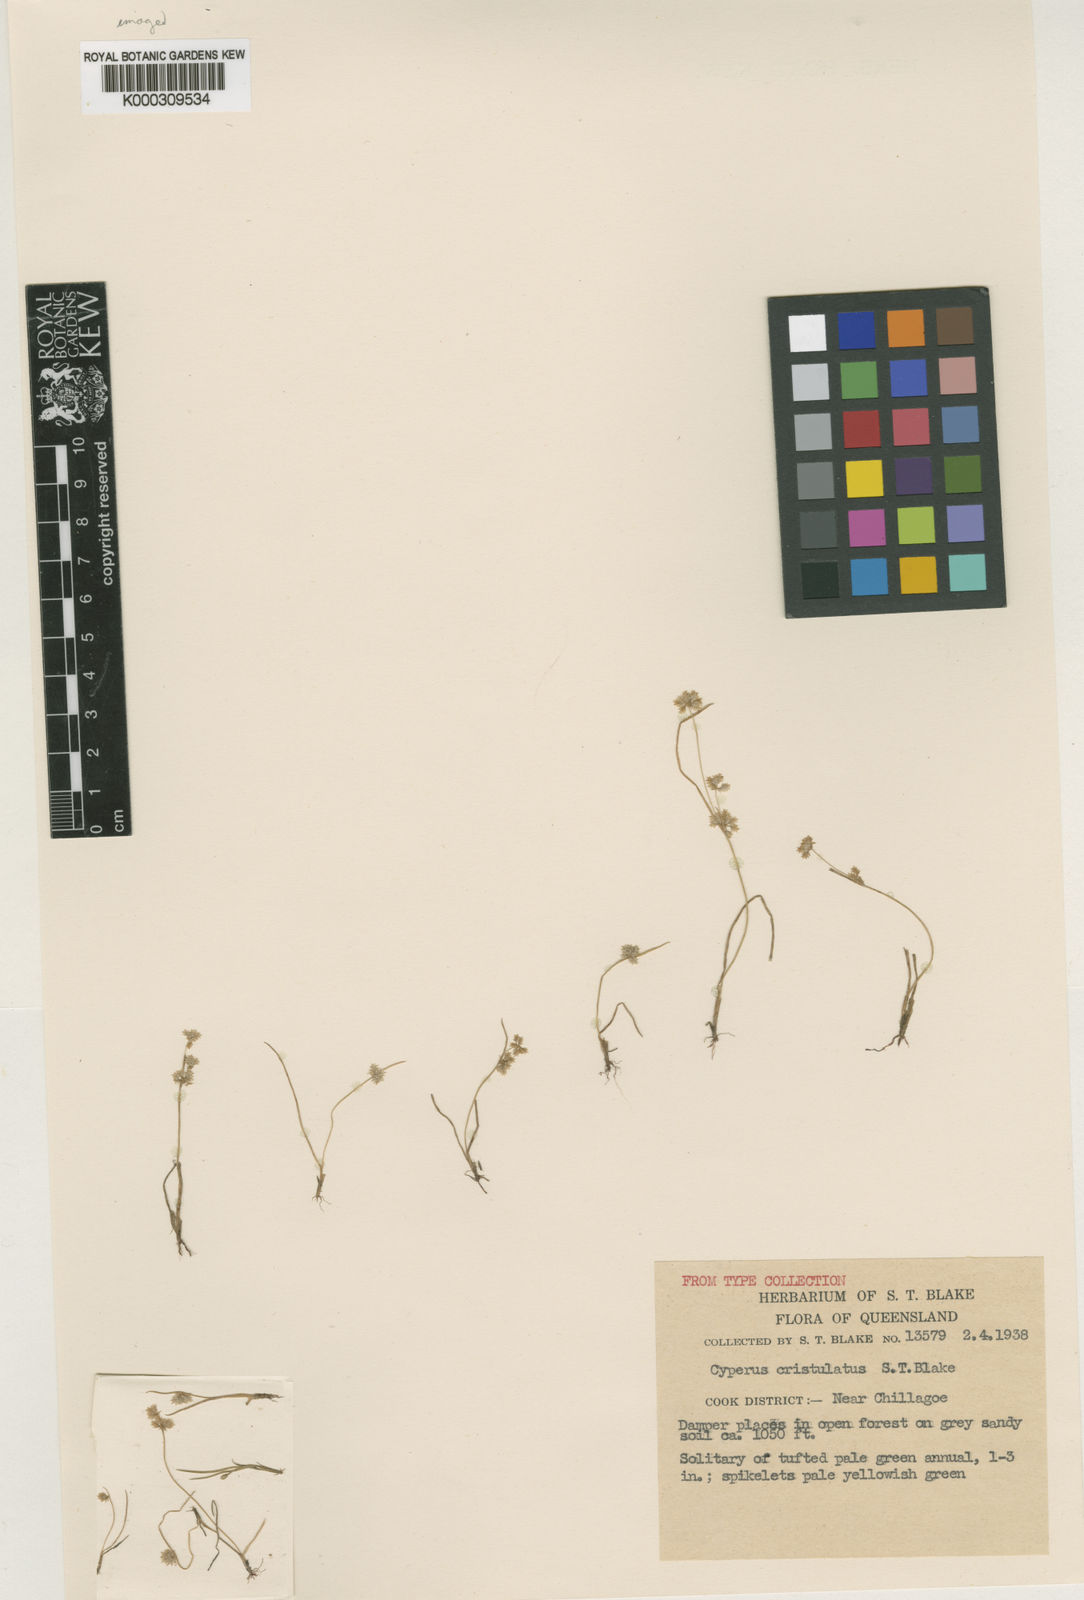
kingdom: Plantae
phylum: Tracheophyta
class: Liliopsida
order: Poales
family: Cyperaceae
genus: Cyperus
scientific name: Cyperus cristulatus
